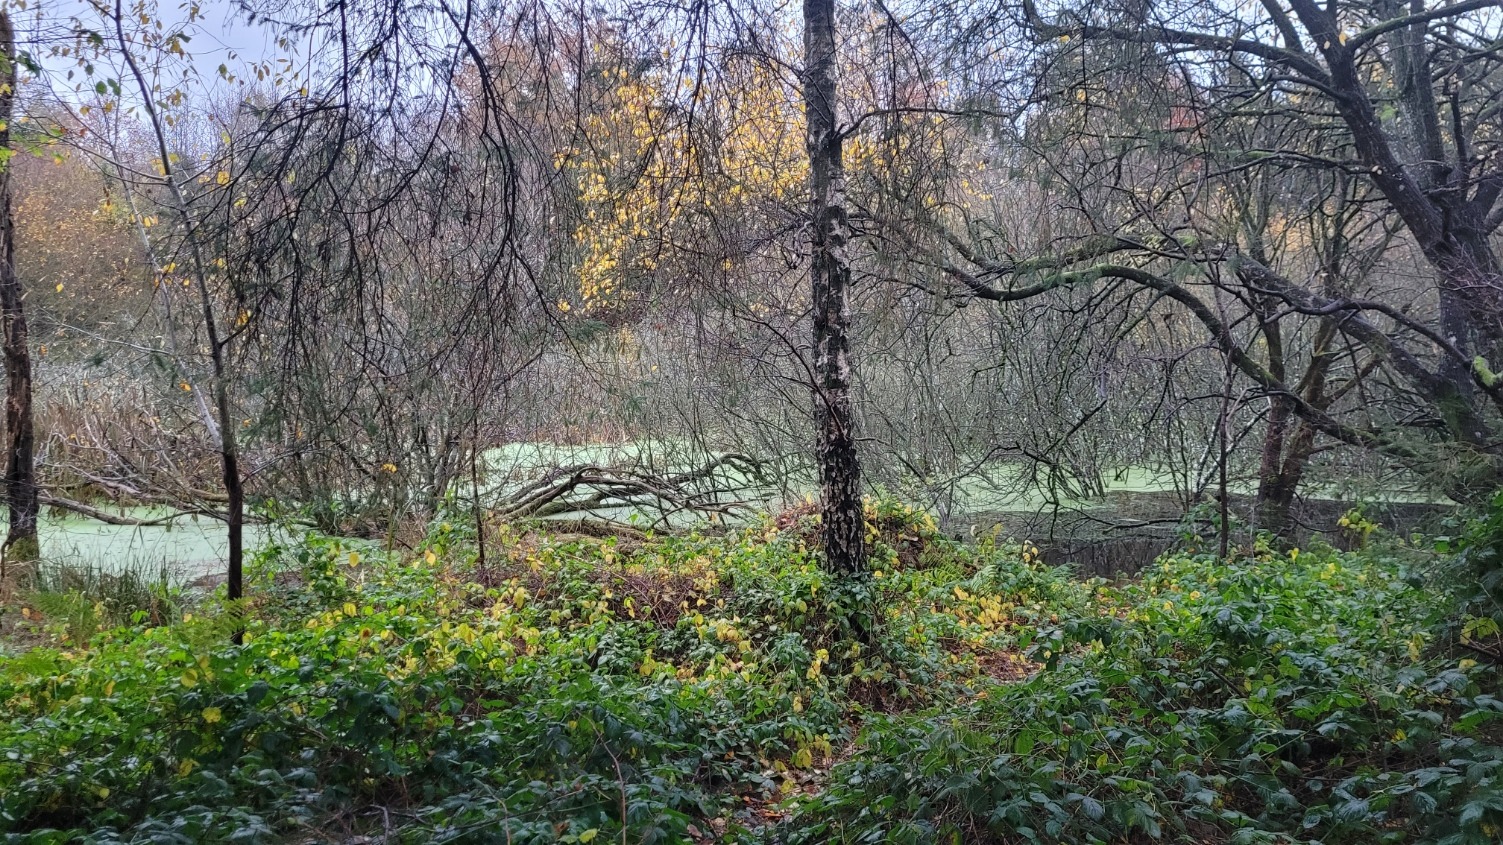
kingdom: Animalia
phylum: Chordata
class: Amphibia
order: Anura
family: Ranidae
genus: Rana
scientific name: Rana temporaria
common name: Butsnudet frø
